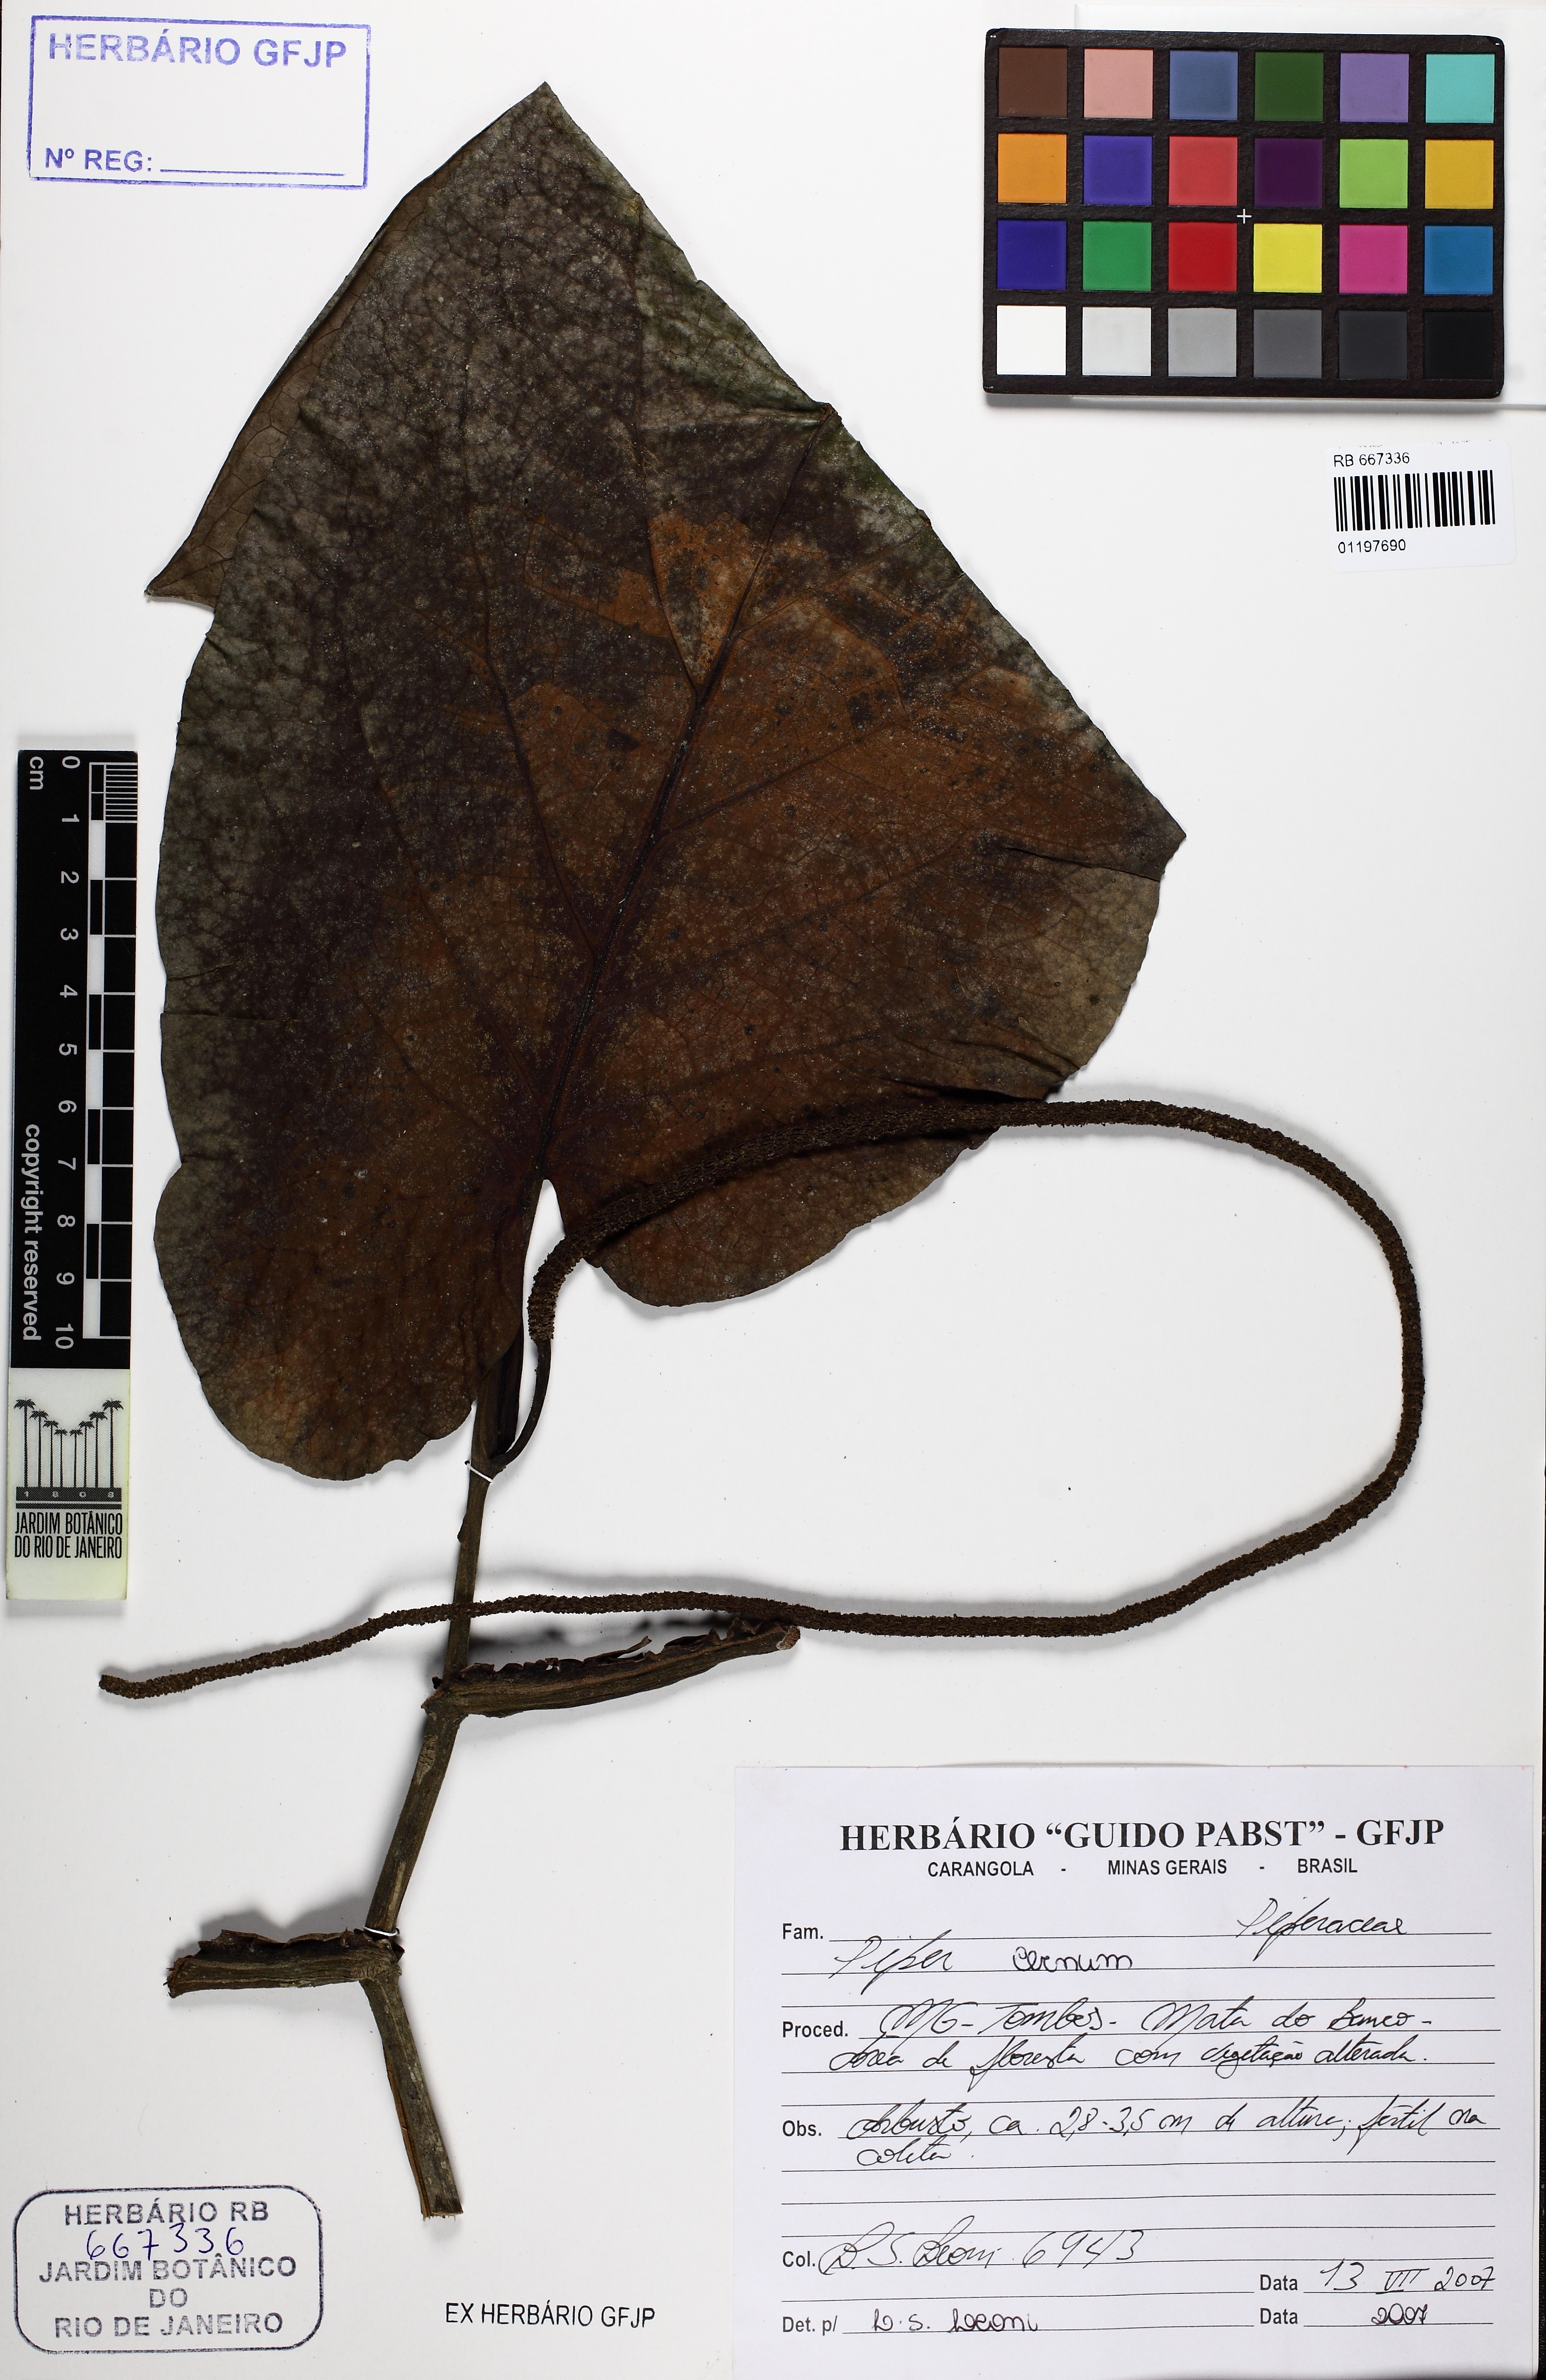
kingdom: Plantae
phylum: Tracheophyta
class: Magnoliopsida
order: Piperales
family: Piperaceae
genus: Piper
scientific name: Piper cernuum
